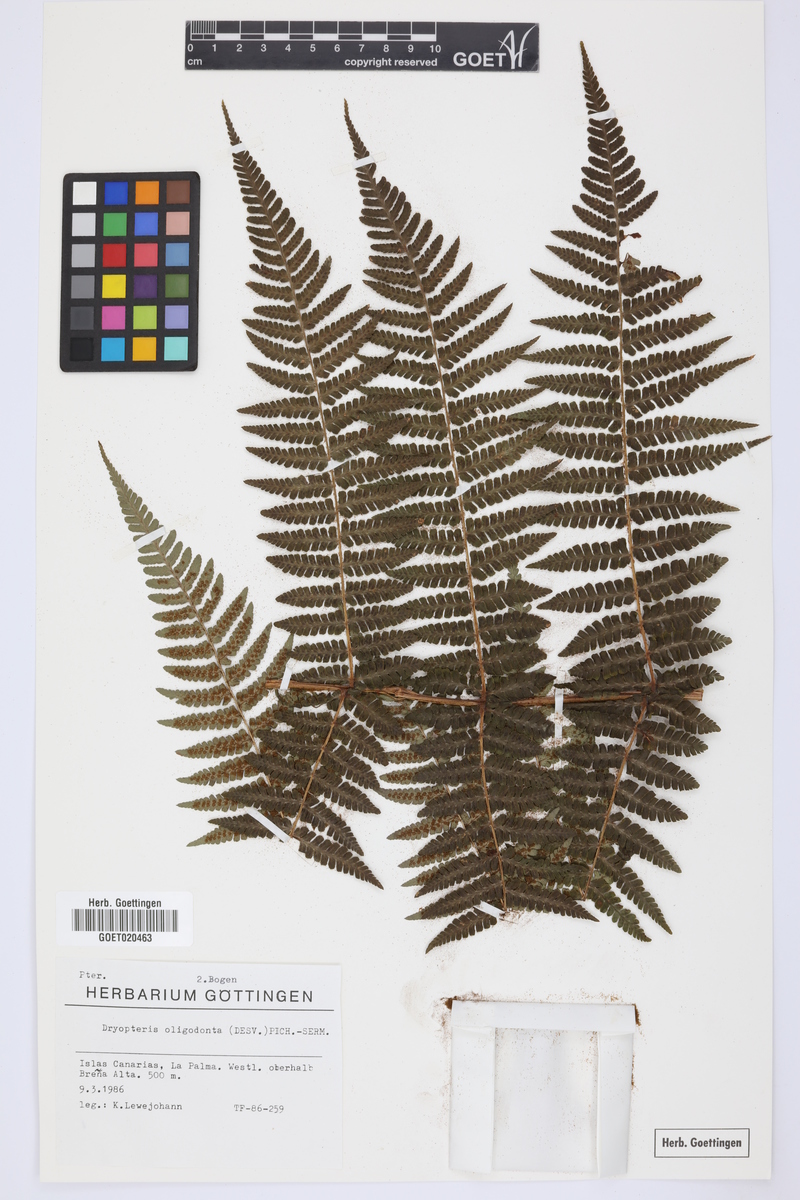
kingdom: Plantae
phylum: Tracheophyta
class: Polypodiopsida
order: Polypodiales
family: Dryopteridaceae
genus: Dryopteris
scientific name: Dryopteris oligodonta
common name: Canarian male-fern
